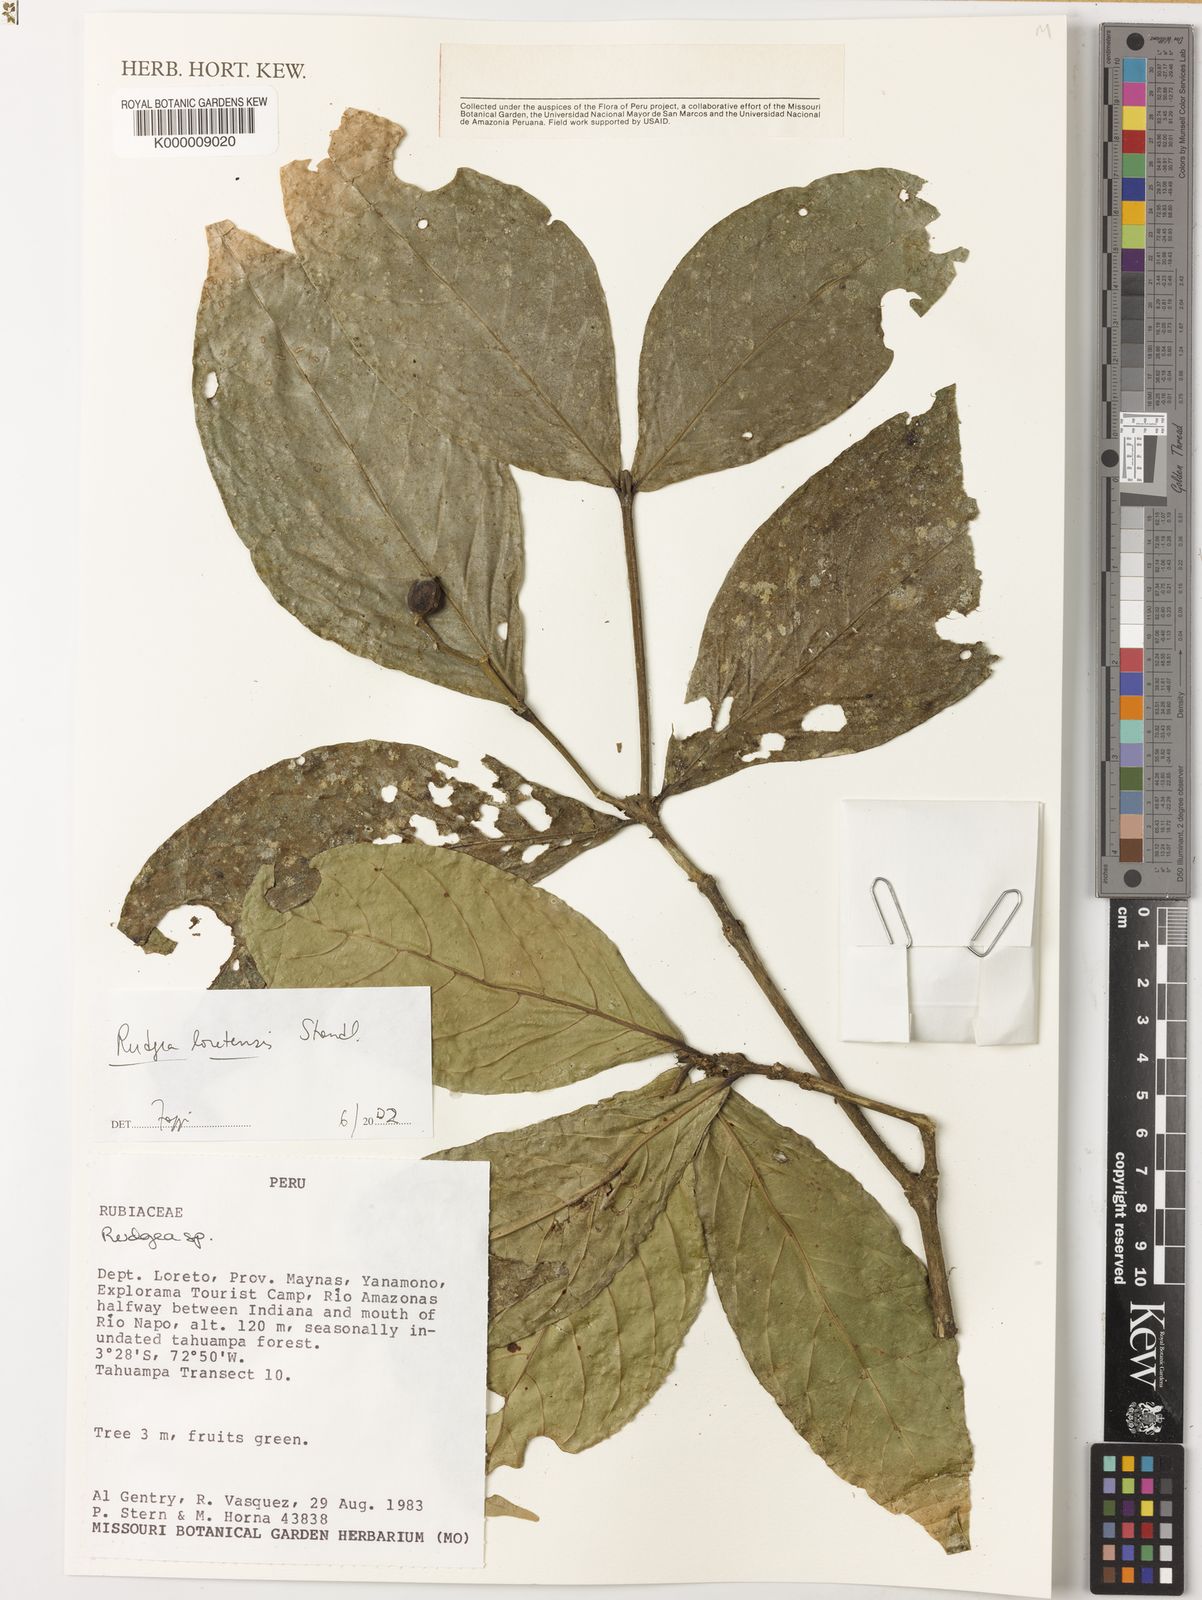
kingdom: Plantae
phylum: Tracheophyta
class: Magnoliopsida
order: Gentianales
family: Rubiaceae
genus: Rudgea
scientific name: Rudgea loretensis
